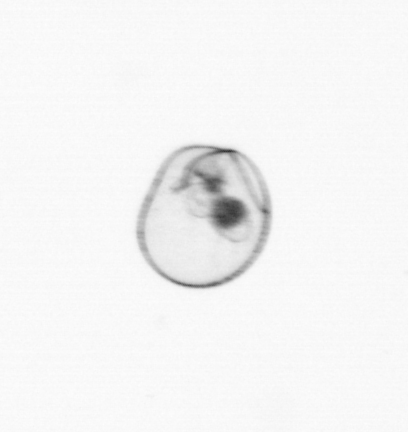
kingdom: Chromista
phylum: Myzozoa
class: Dinophyceae
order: Noctilucales
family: Noctilucaceae
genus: Noctiluca
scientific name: Noctiluca scintillans
